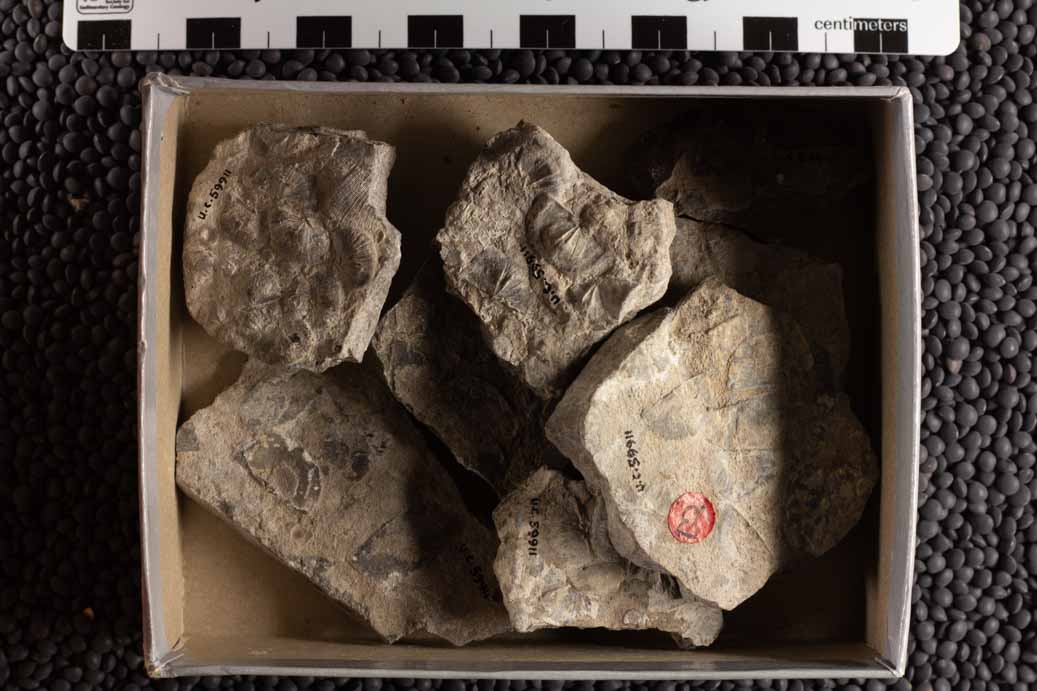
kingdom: Animalia
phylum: Brachiopoda
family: Sowerbyellidae
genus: Sowerbyella
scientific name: Sowerbyella
